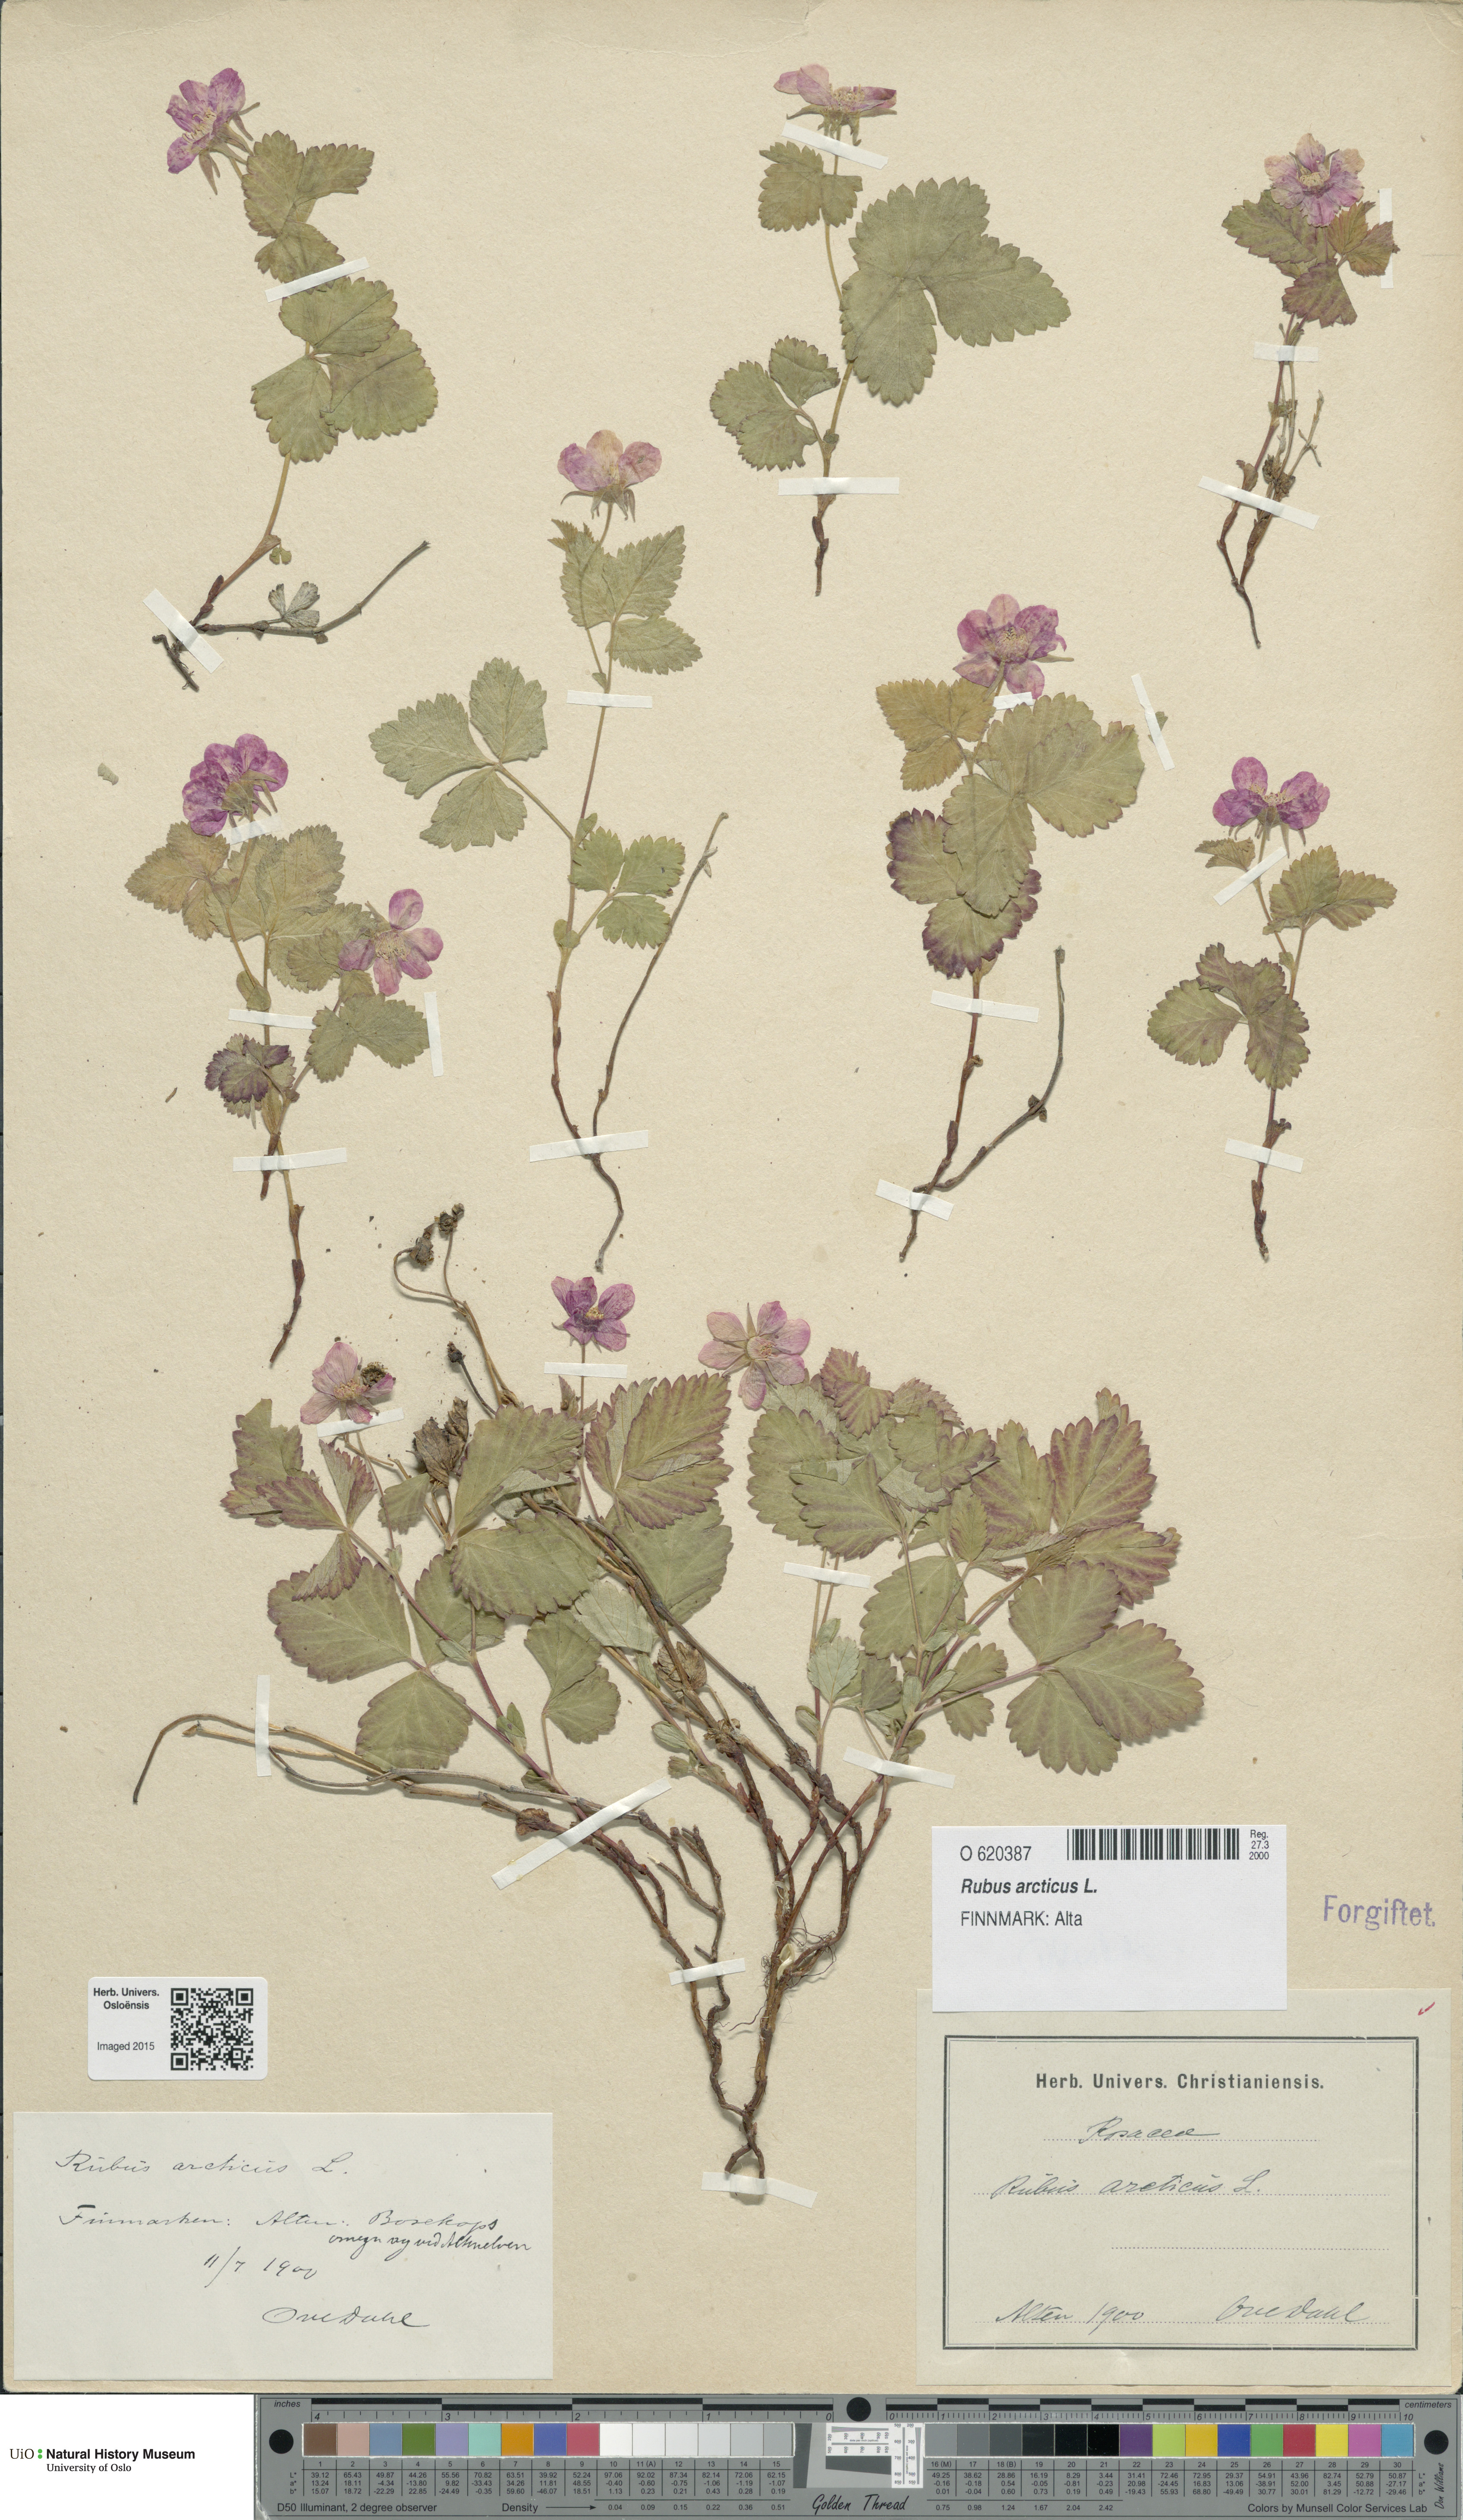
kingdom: Plantae
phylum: Tracheophyta
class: Magnoliopsida
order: Rosales
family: Rosaceae
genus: Rubus
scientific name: Rubus arcticus
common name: Arctic bramble
